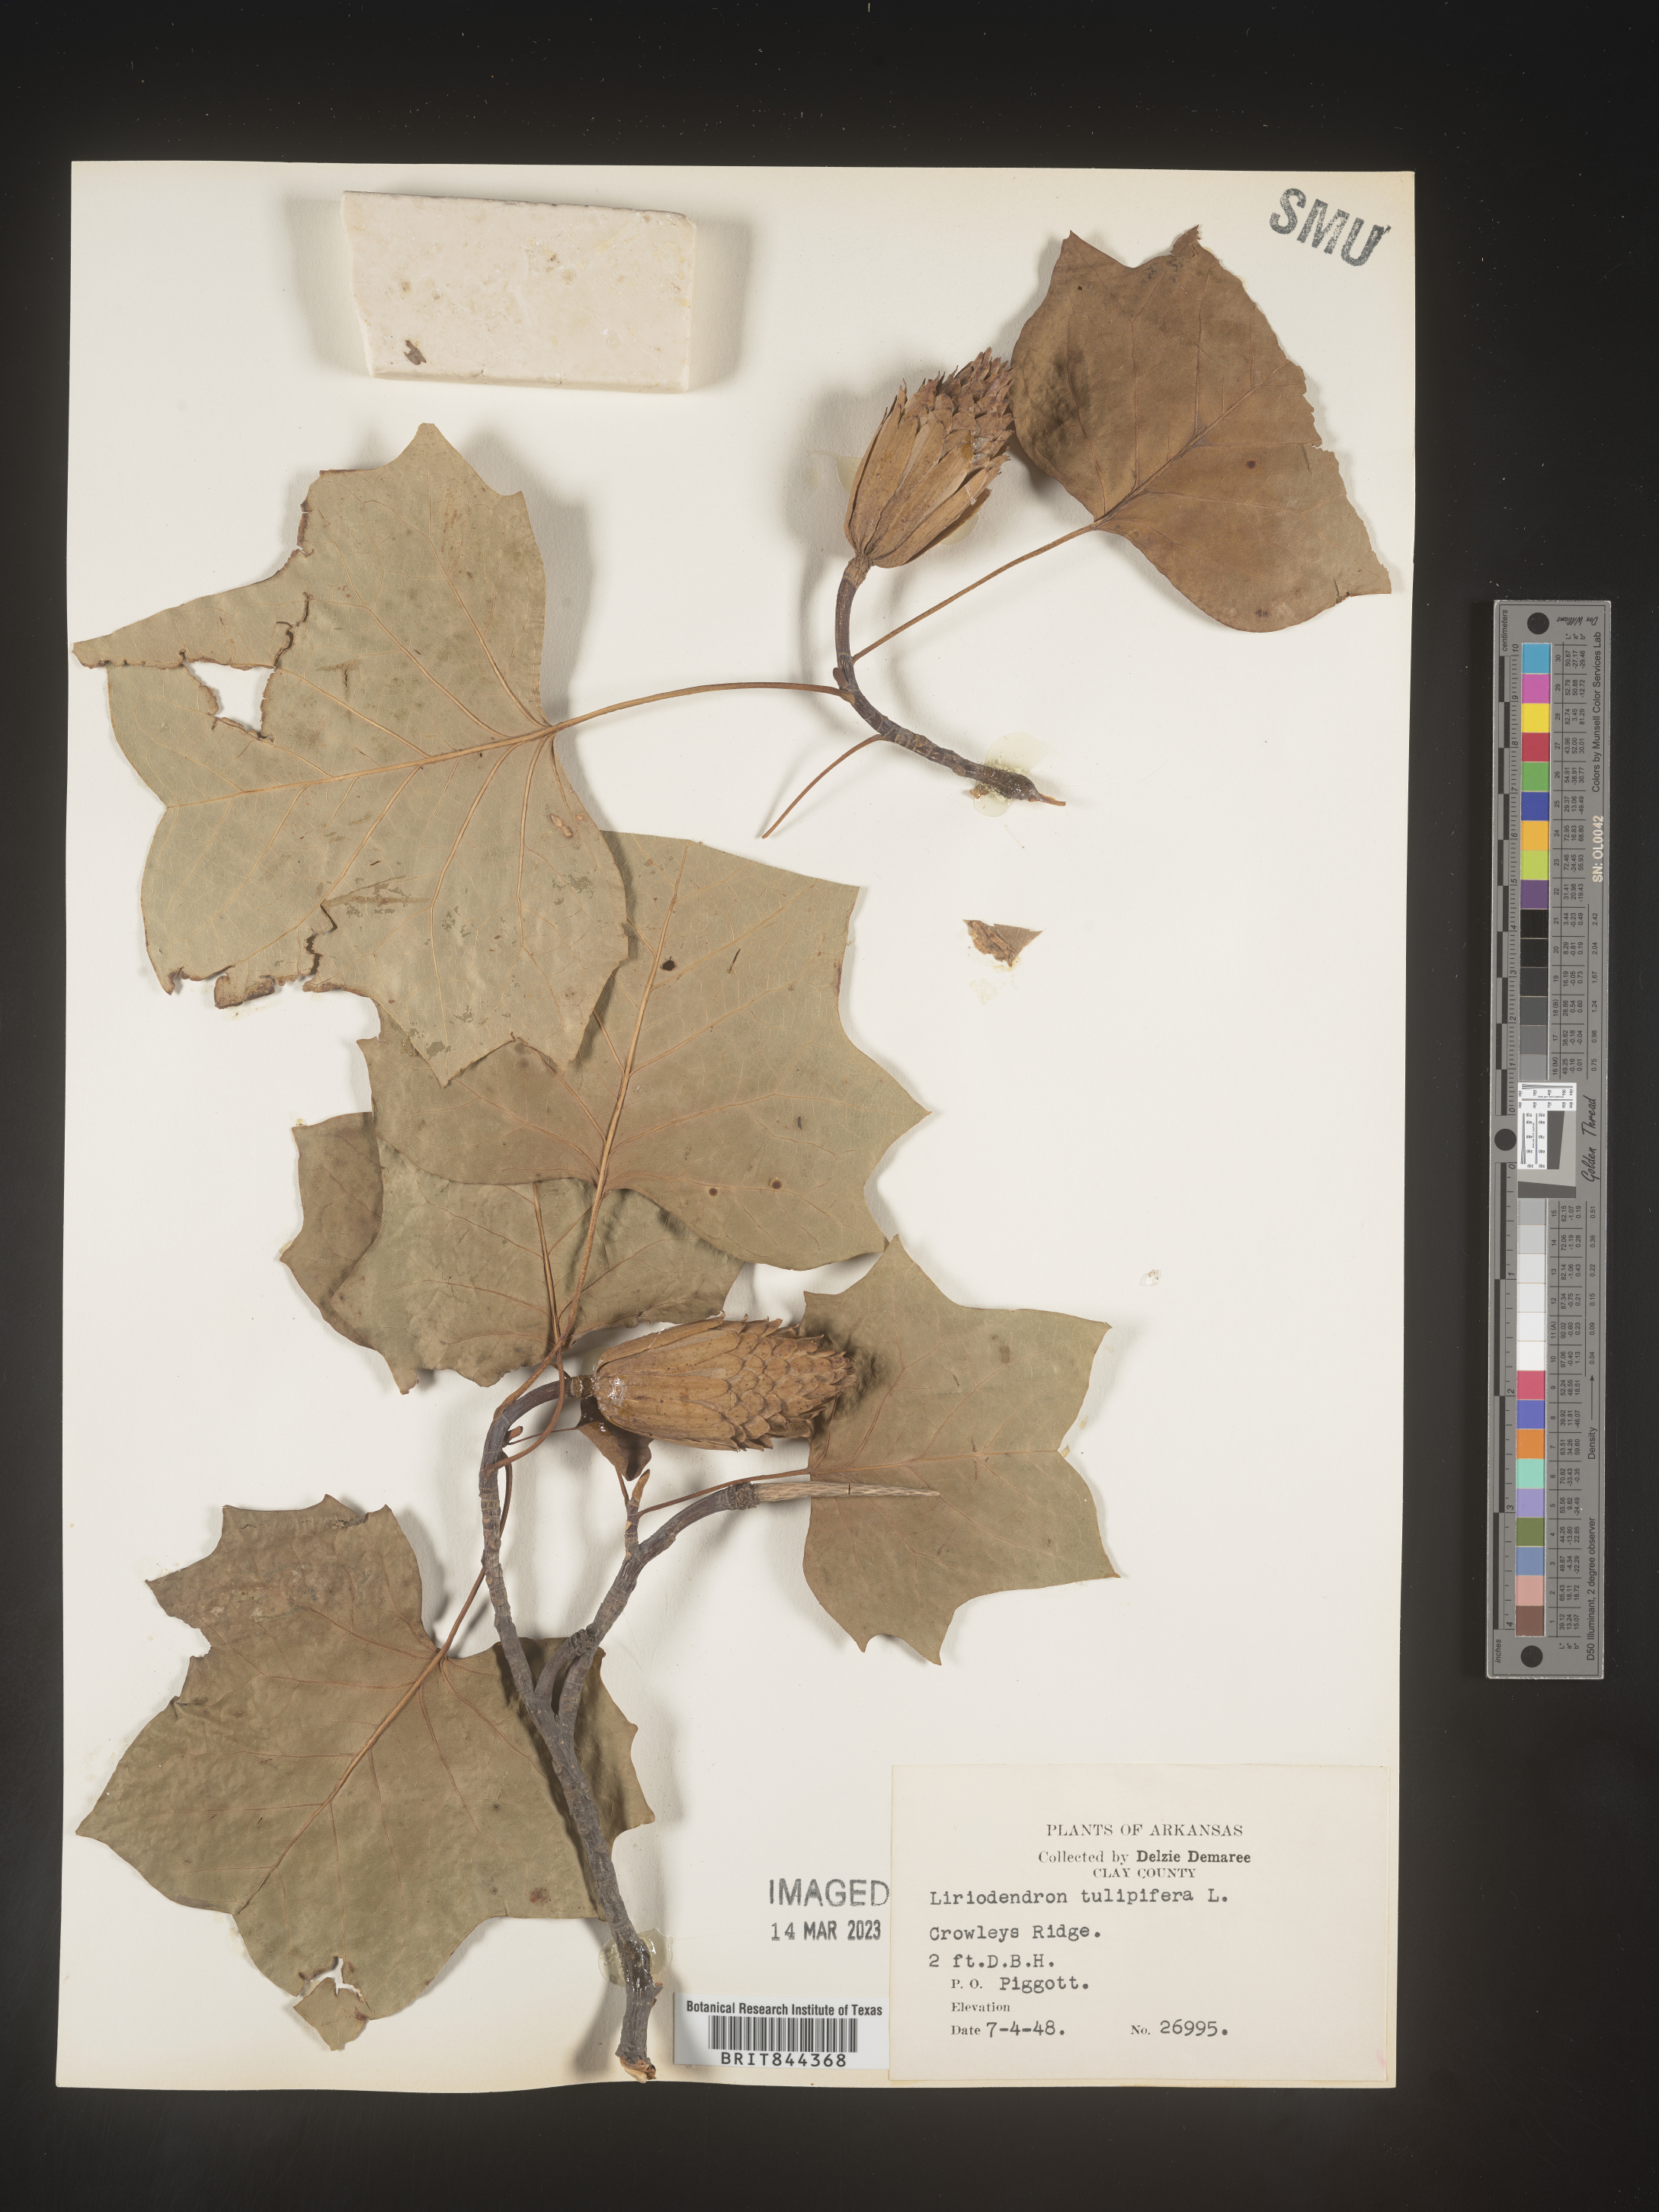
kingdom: Plantae
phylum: Tracheophyta
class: Magnoliopsida
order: Magnoliales
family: Magnoliaceae
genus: Liriodendron
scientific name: Liriodendron tulipifera
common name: Tulip tree
